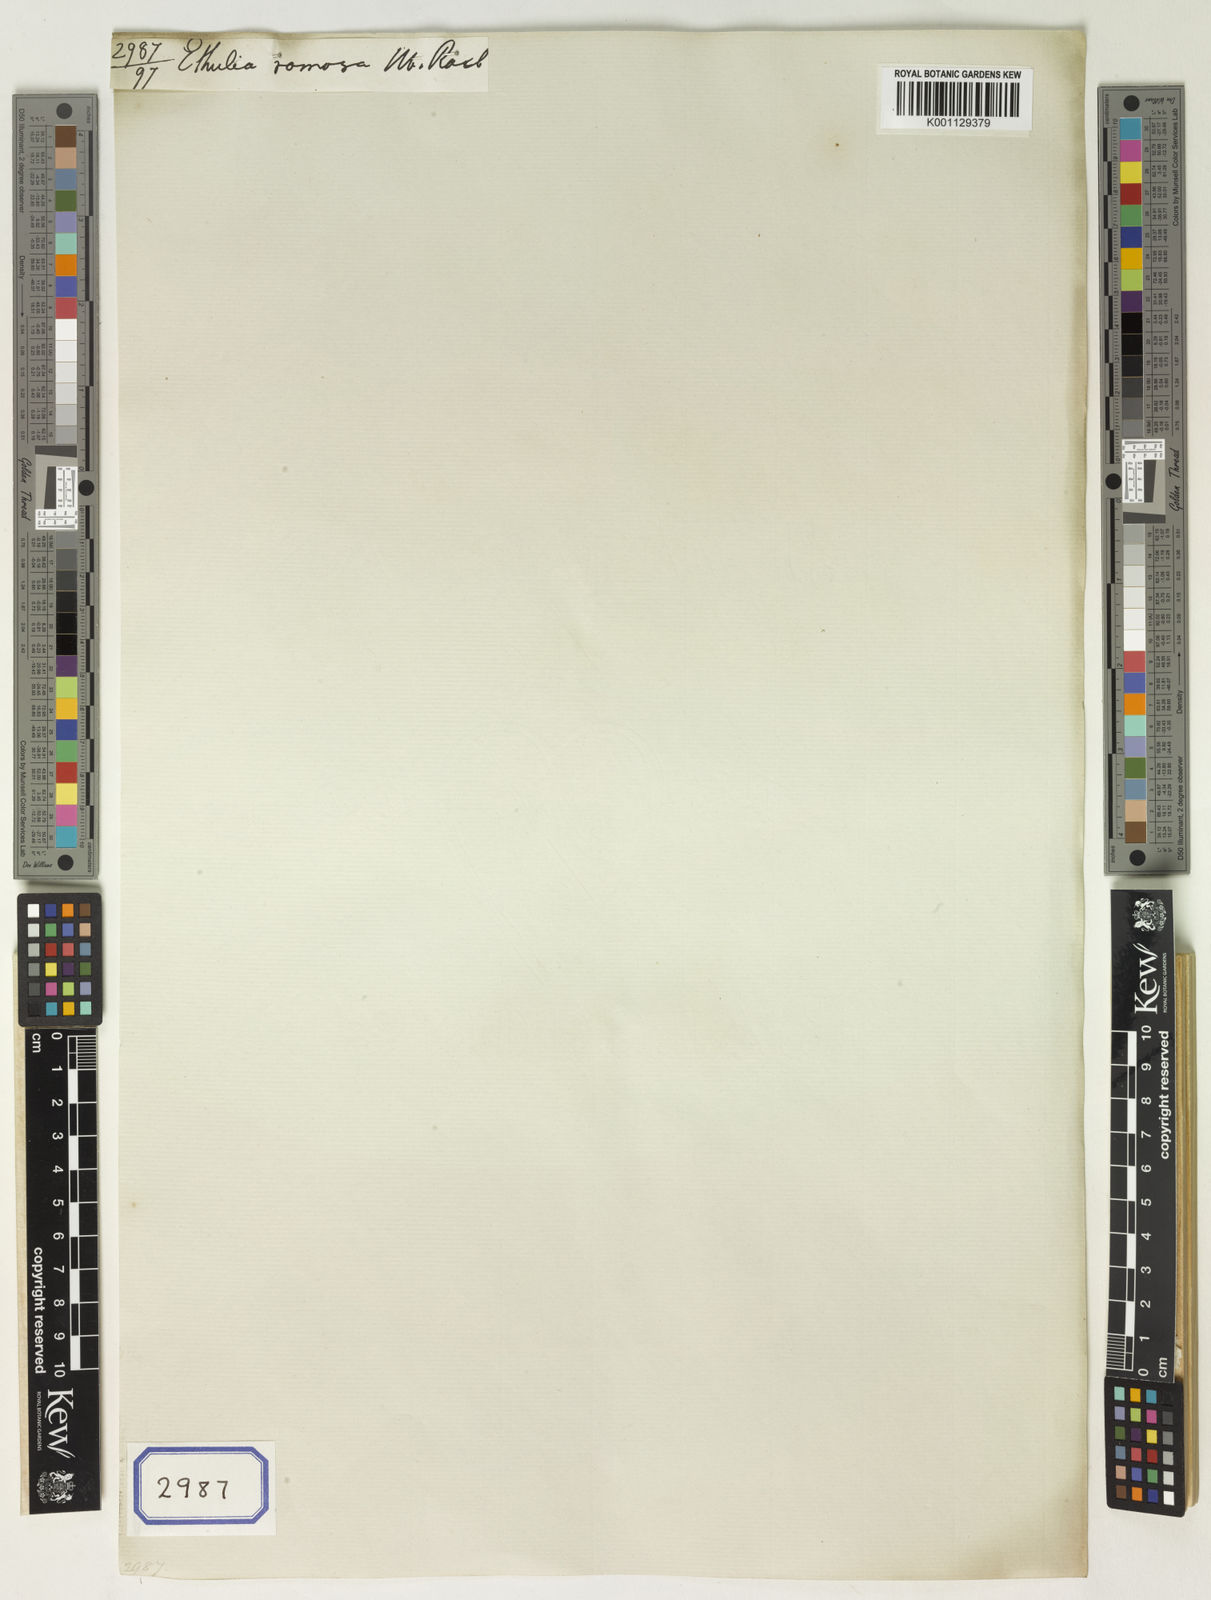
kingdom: Plantae
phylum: Tracheophyta
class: Magnoliopsida
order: Asterales
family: Asteraceae
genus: Ethulia
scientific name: Ethulia conyzoides
